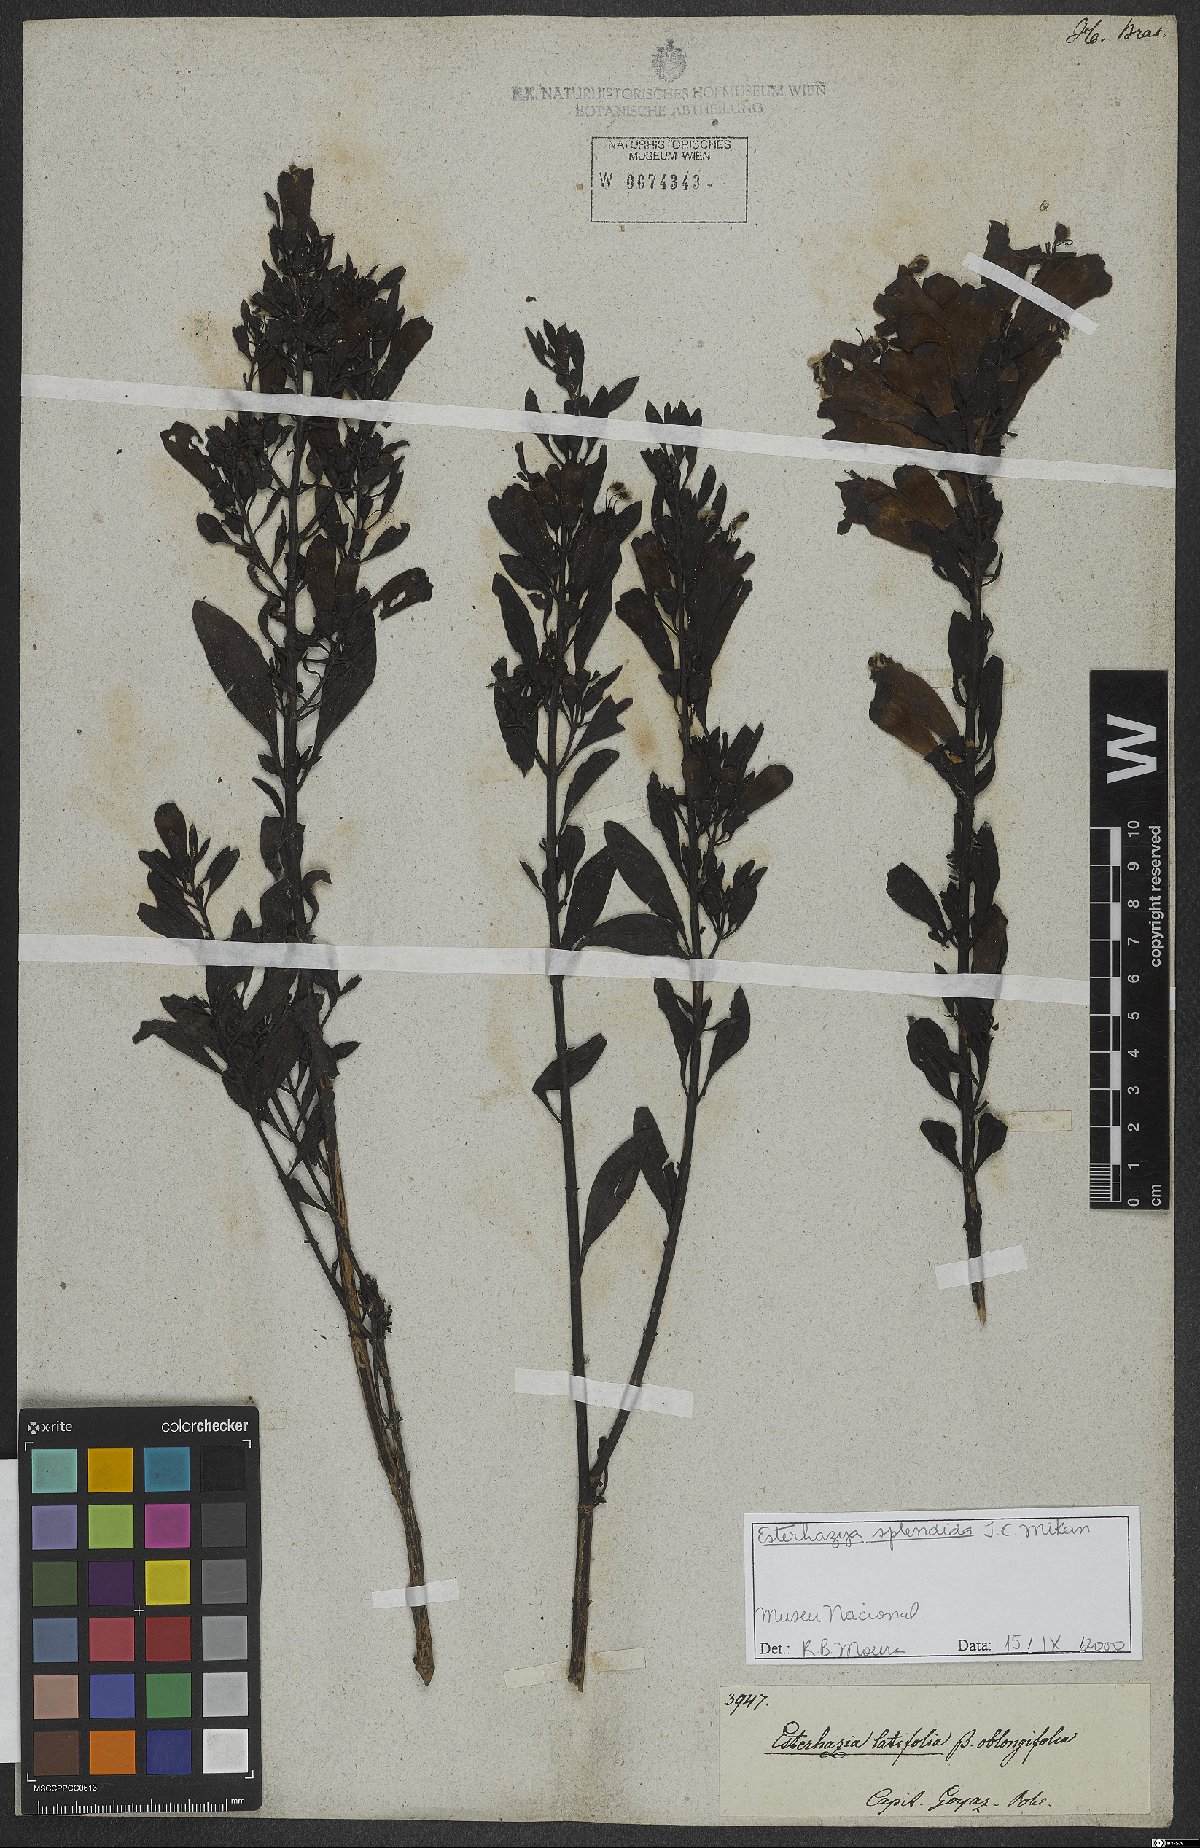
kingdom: Plantae
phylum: Tracheophyta
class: Magnoliopsida
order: Lamiales
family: Orobanchaceae
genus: Esterhazya
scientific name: Esterhazya splendida
